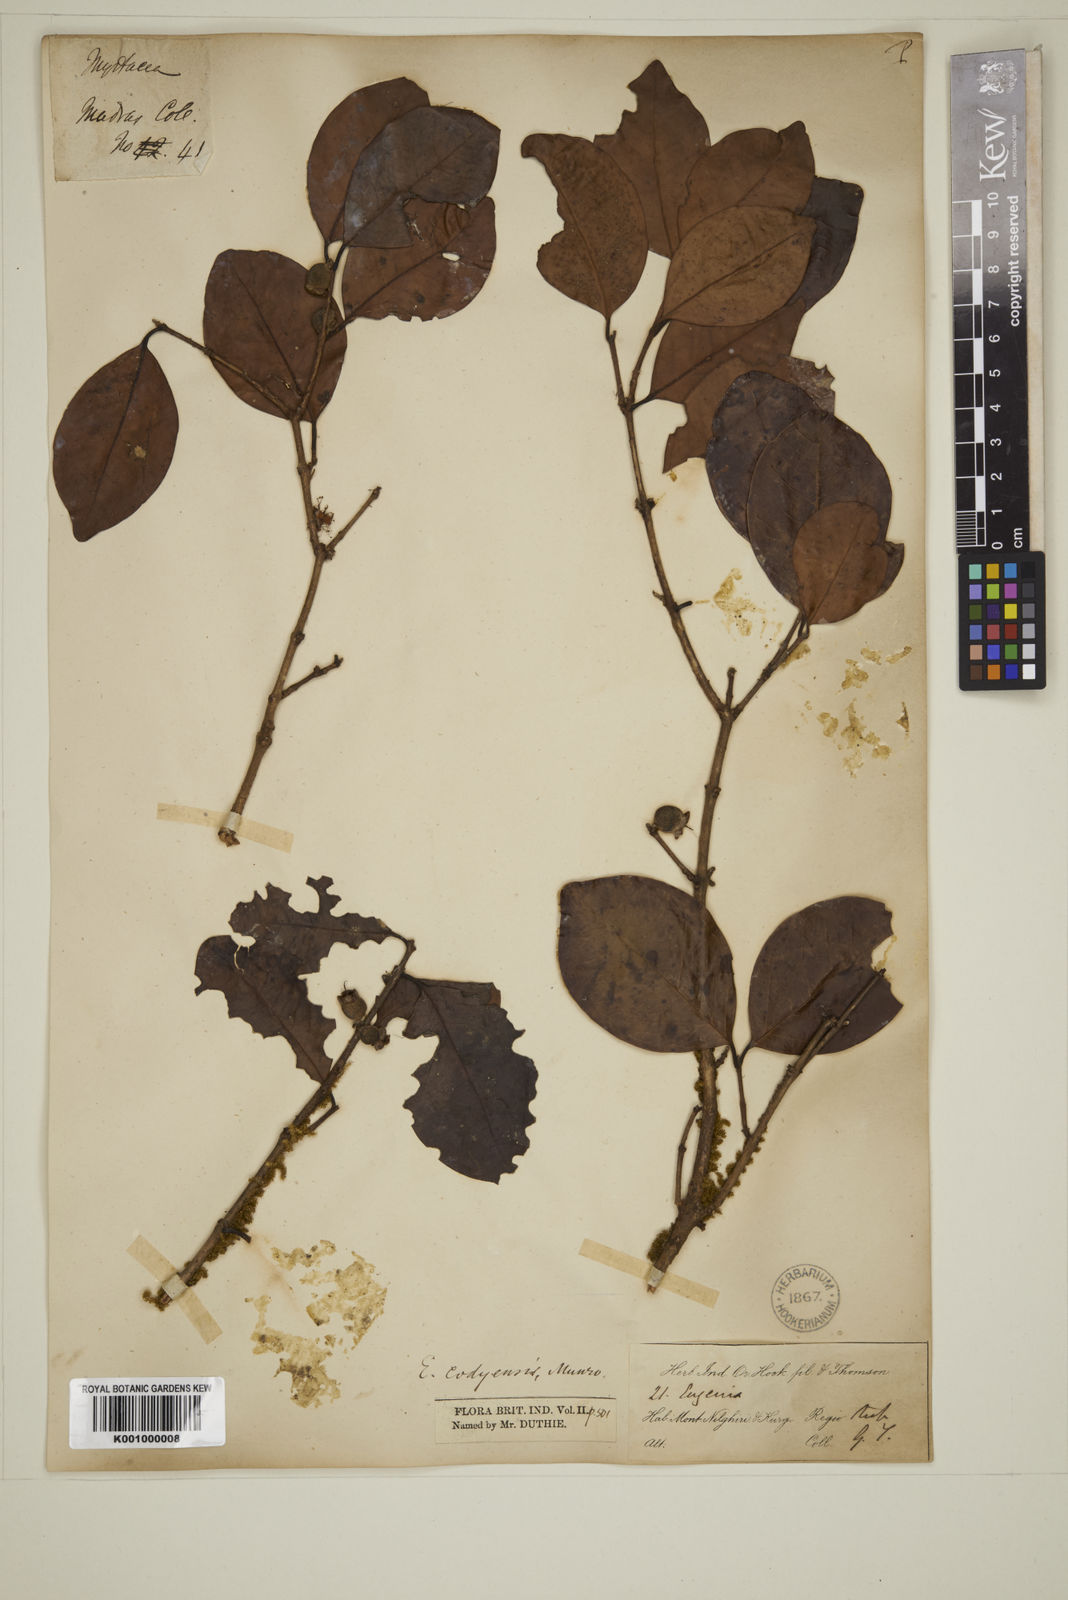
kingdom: Plantae
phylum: Tracheophyta
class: Magnoliopsida
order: Myrtales
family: Myrtaceae
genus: Eugenia
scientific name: Eugenia codyensis
